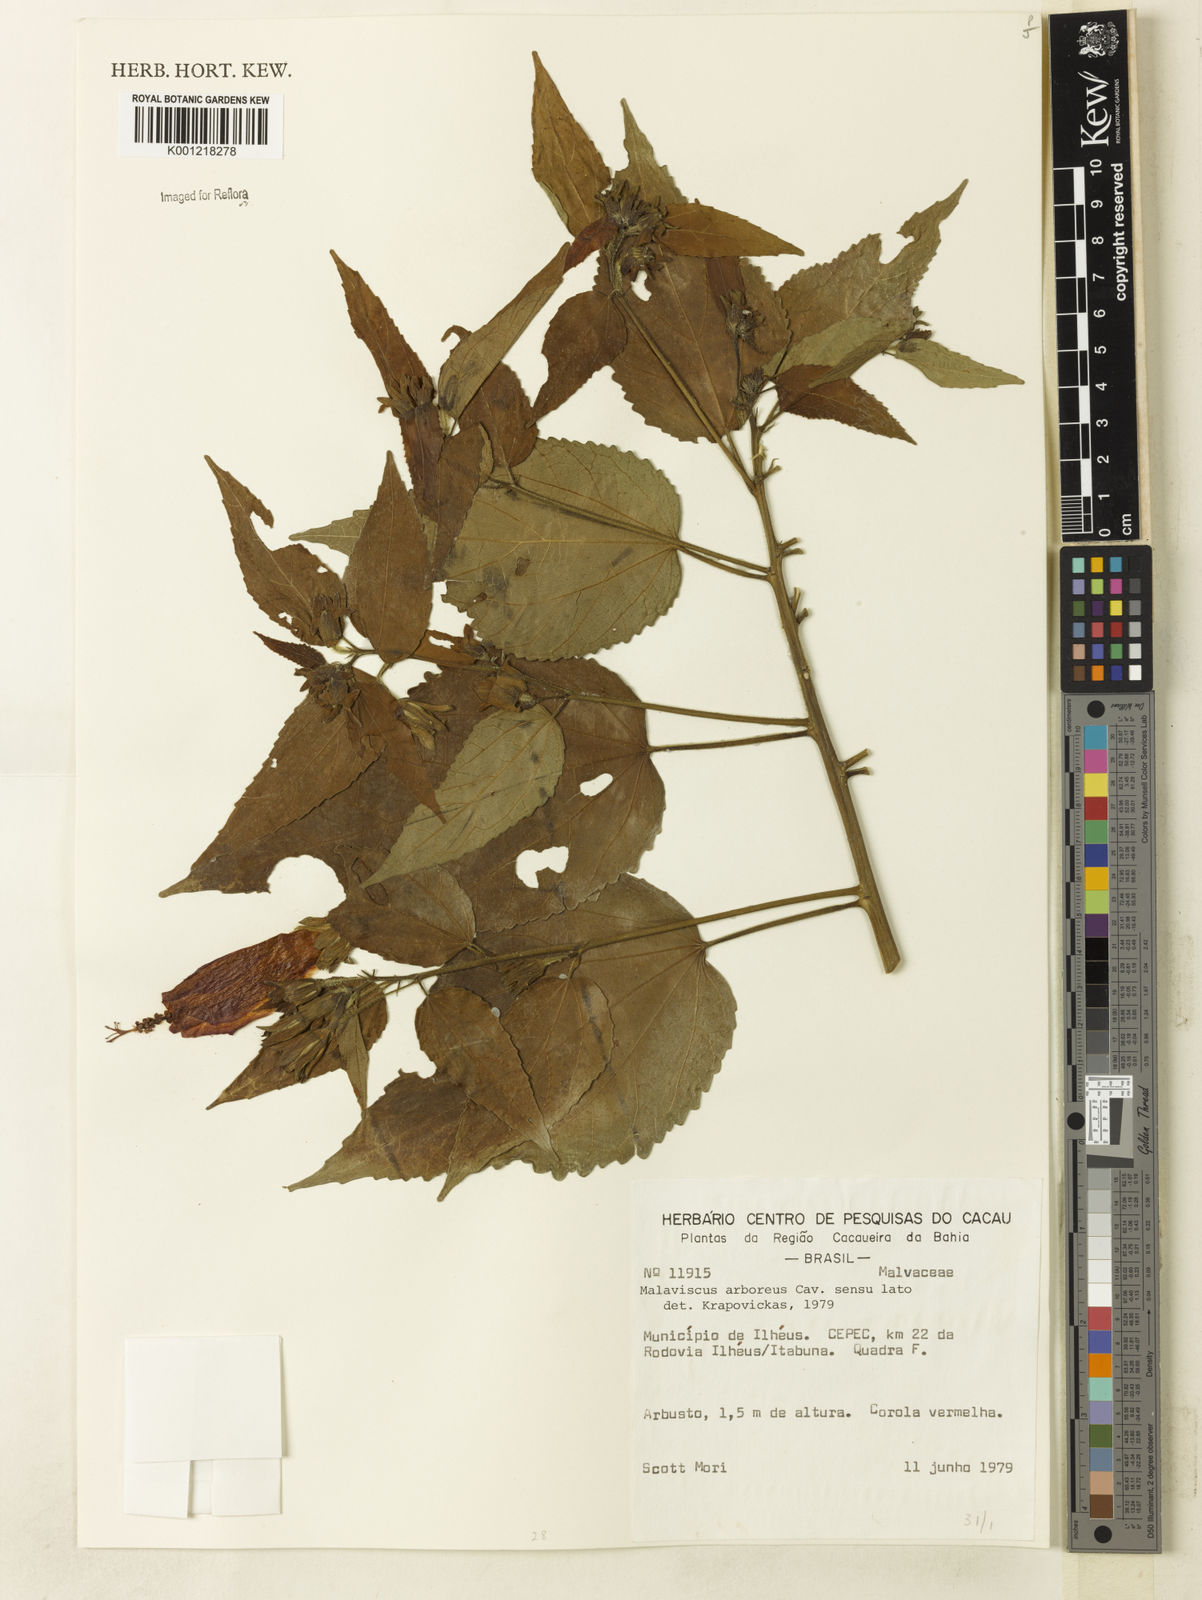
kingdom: Plantae
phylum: Tracheophyta
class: Magnoliopsida
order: Malvales
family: Malvaceae
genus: Malvaviscus
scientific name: Malvaviscus arboreus
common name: Wax mallow
